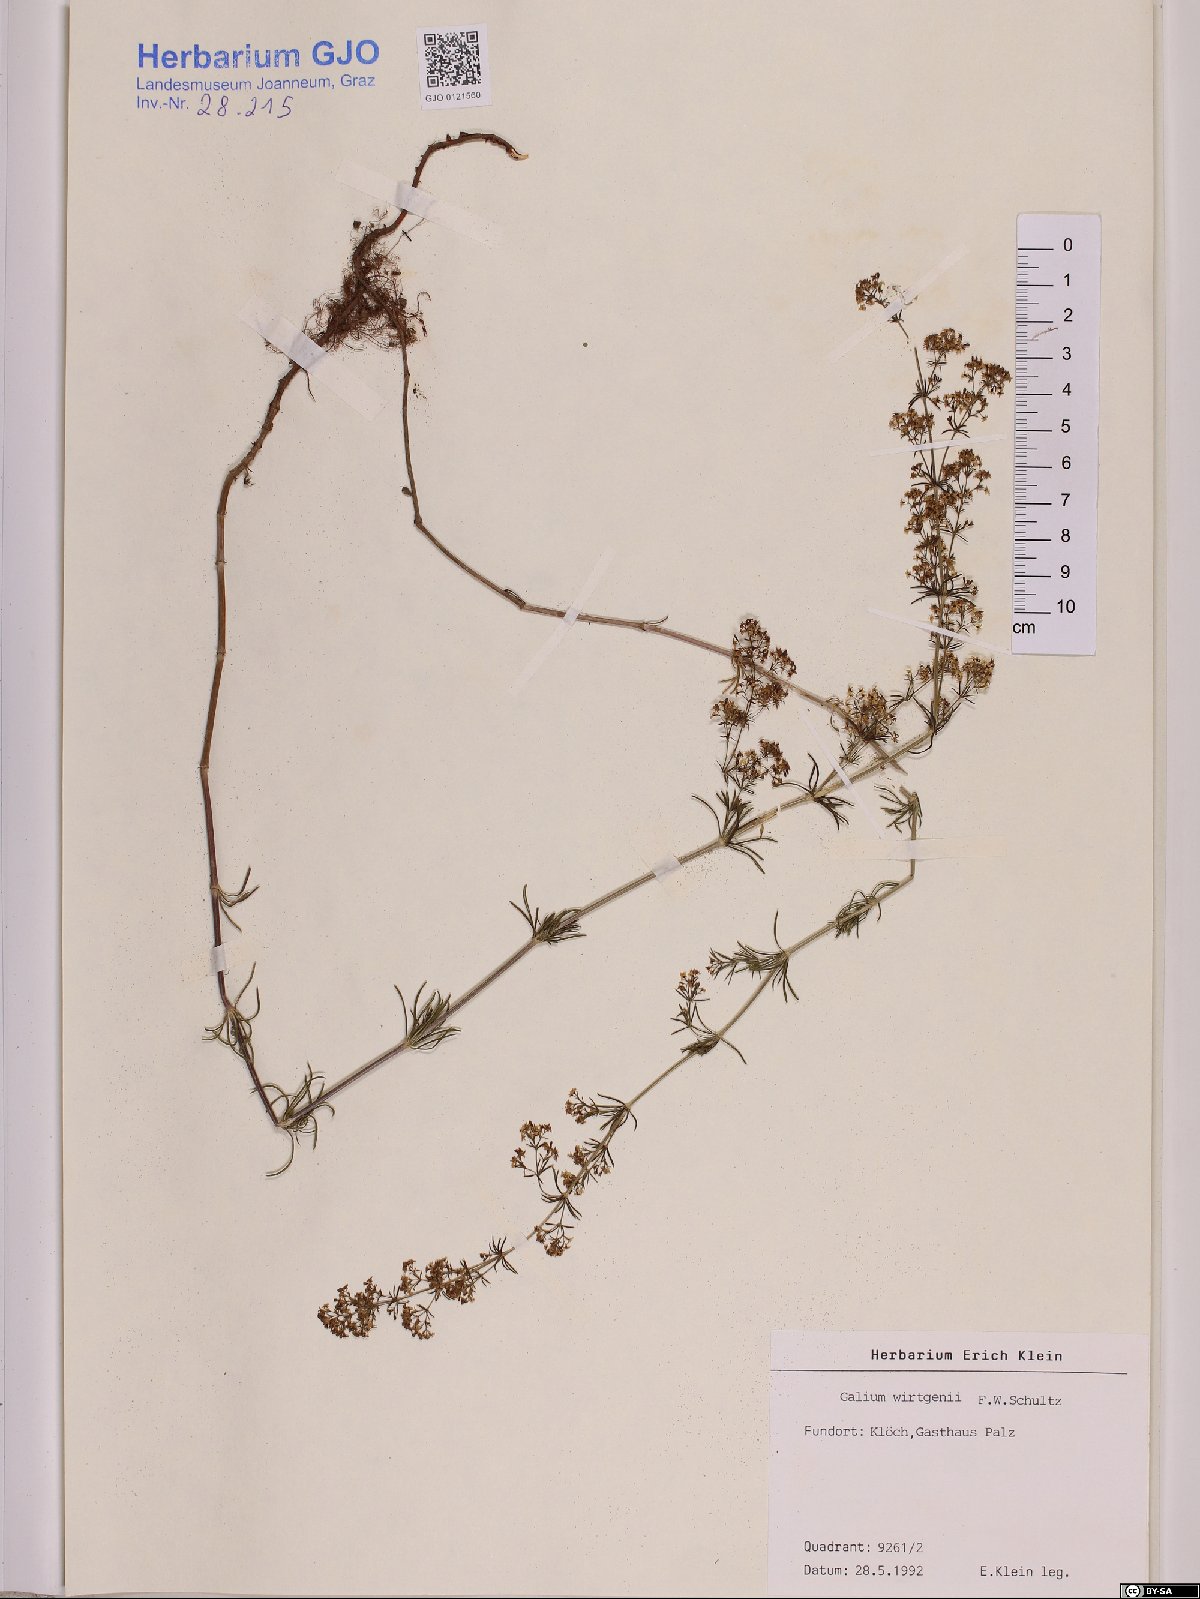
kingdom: Plantae
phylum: Tracheophyta
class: Magnoliopsida
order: Gentianales
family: Rubiaceae
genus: Galium
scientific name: Galium verum
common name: Lady's bedstraw
